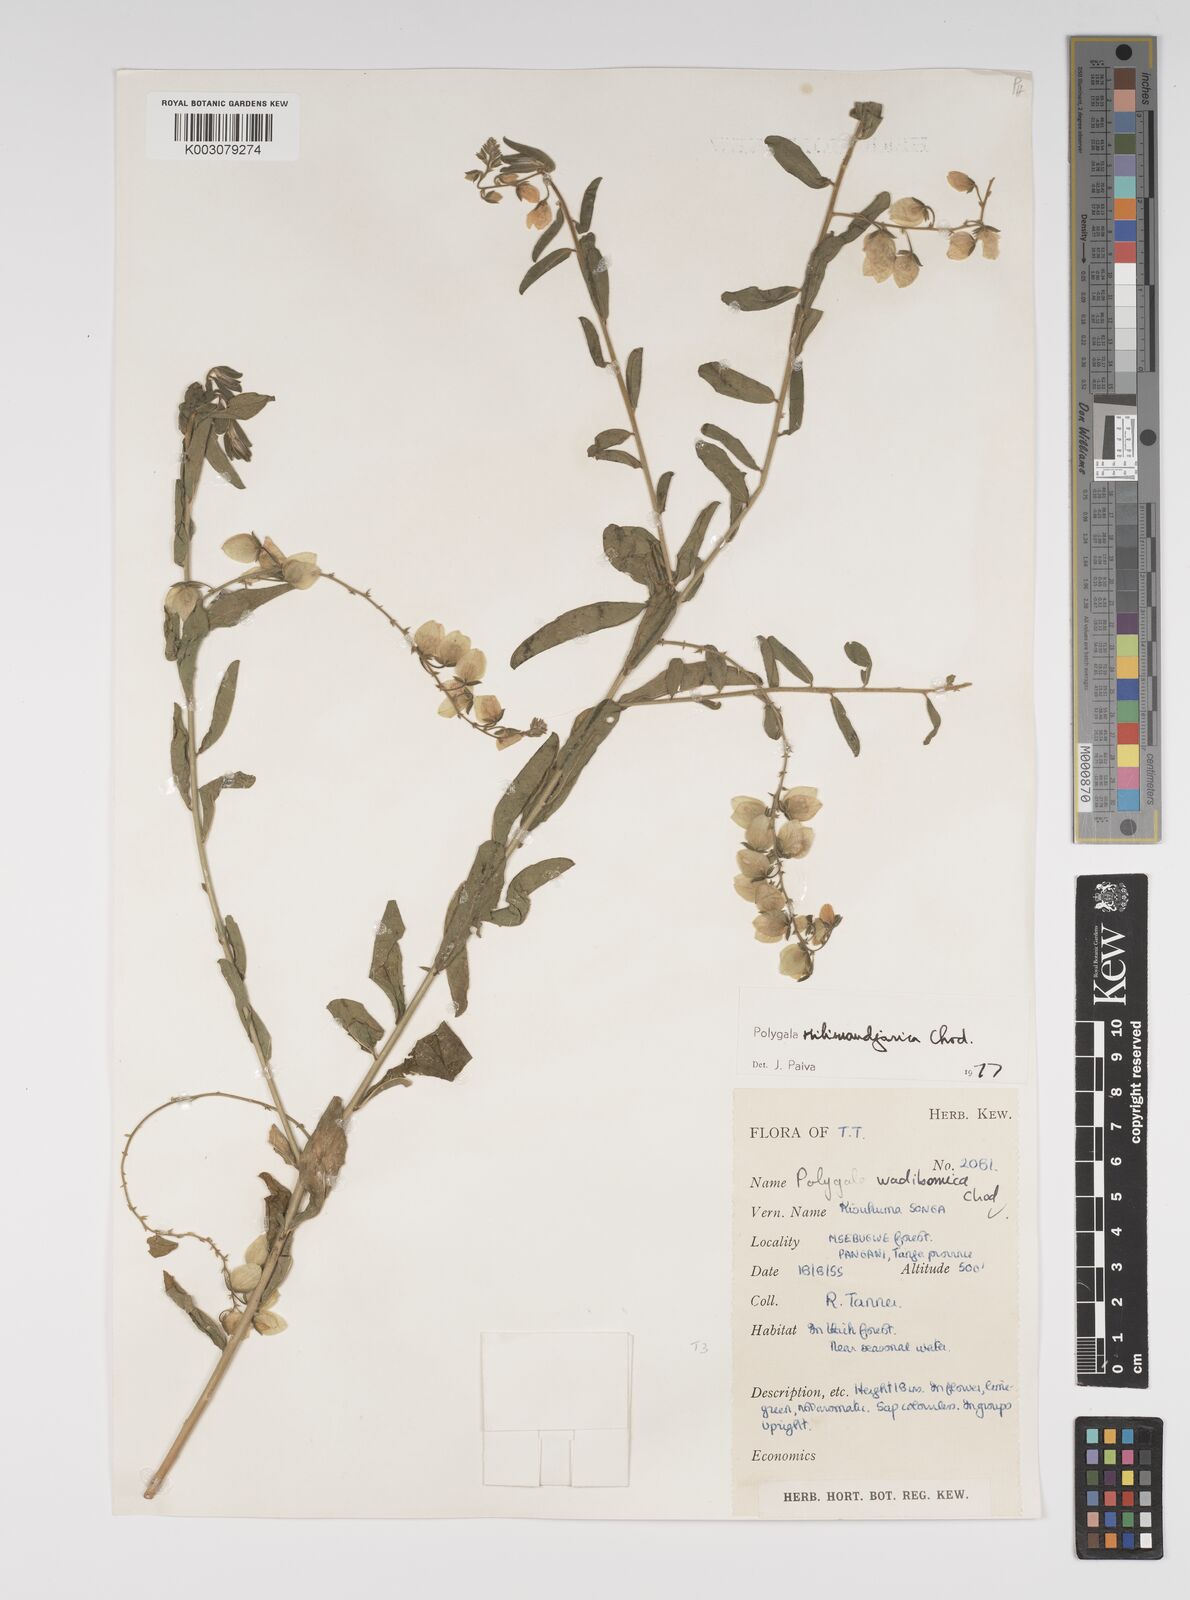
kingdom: Plantae
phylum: Tracheophyta
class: Magnoliopsida
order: Fabales
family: Polygalaceae
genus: Polygala
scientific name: Polygala kilimandjarica
